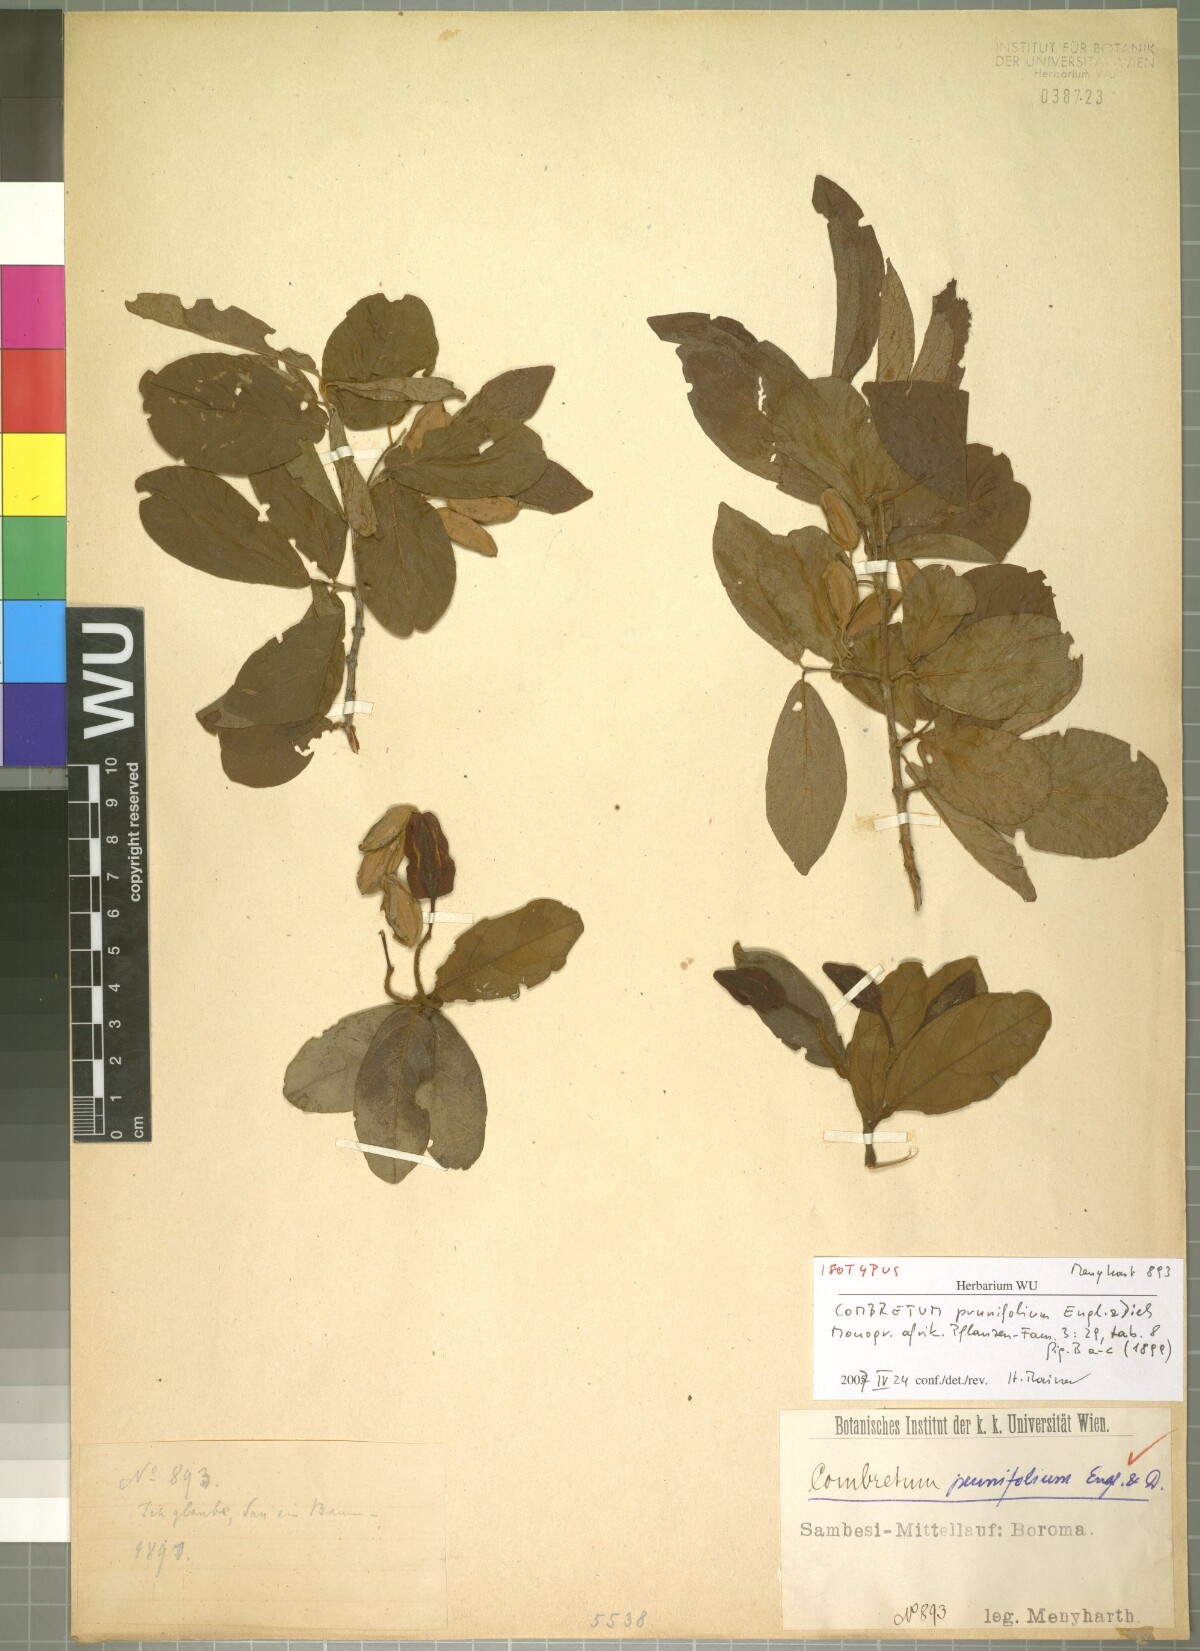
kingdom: Plantae
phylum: Tracheophyta
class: Magnoliopsida
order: Myrtales
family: Combretaceae
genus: Combretum
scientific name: Combretum elaeagnoides
